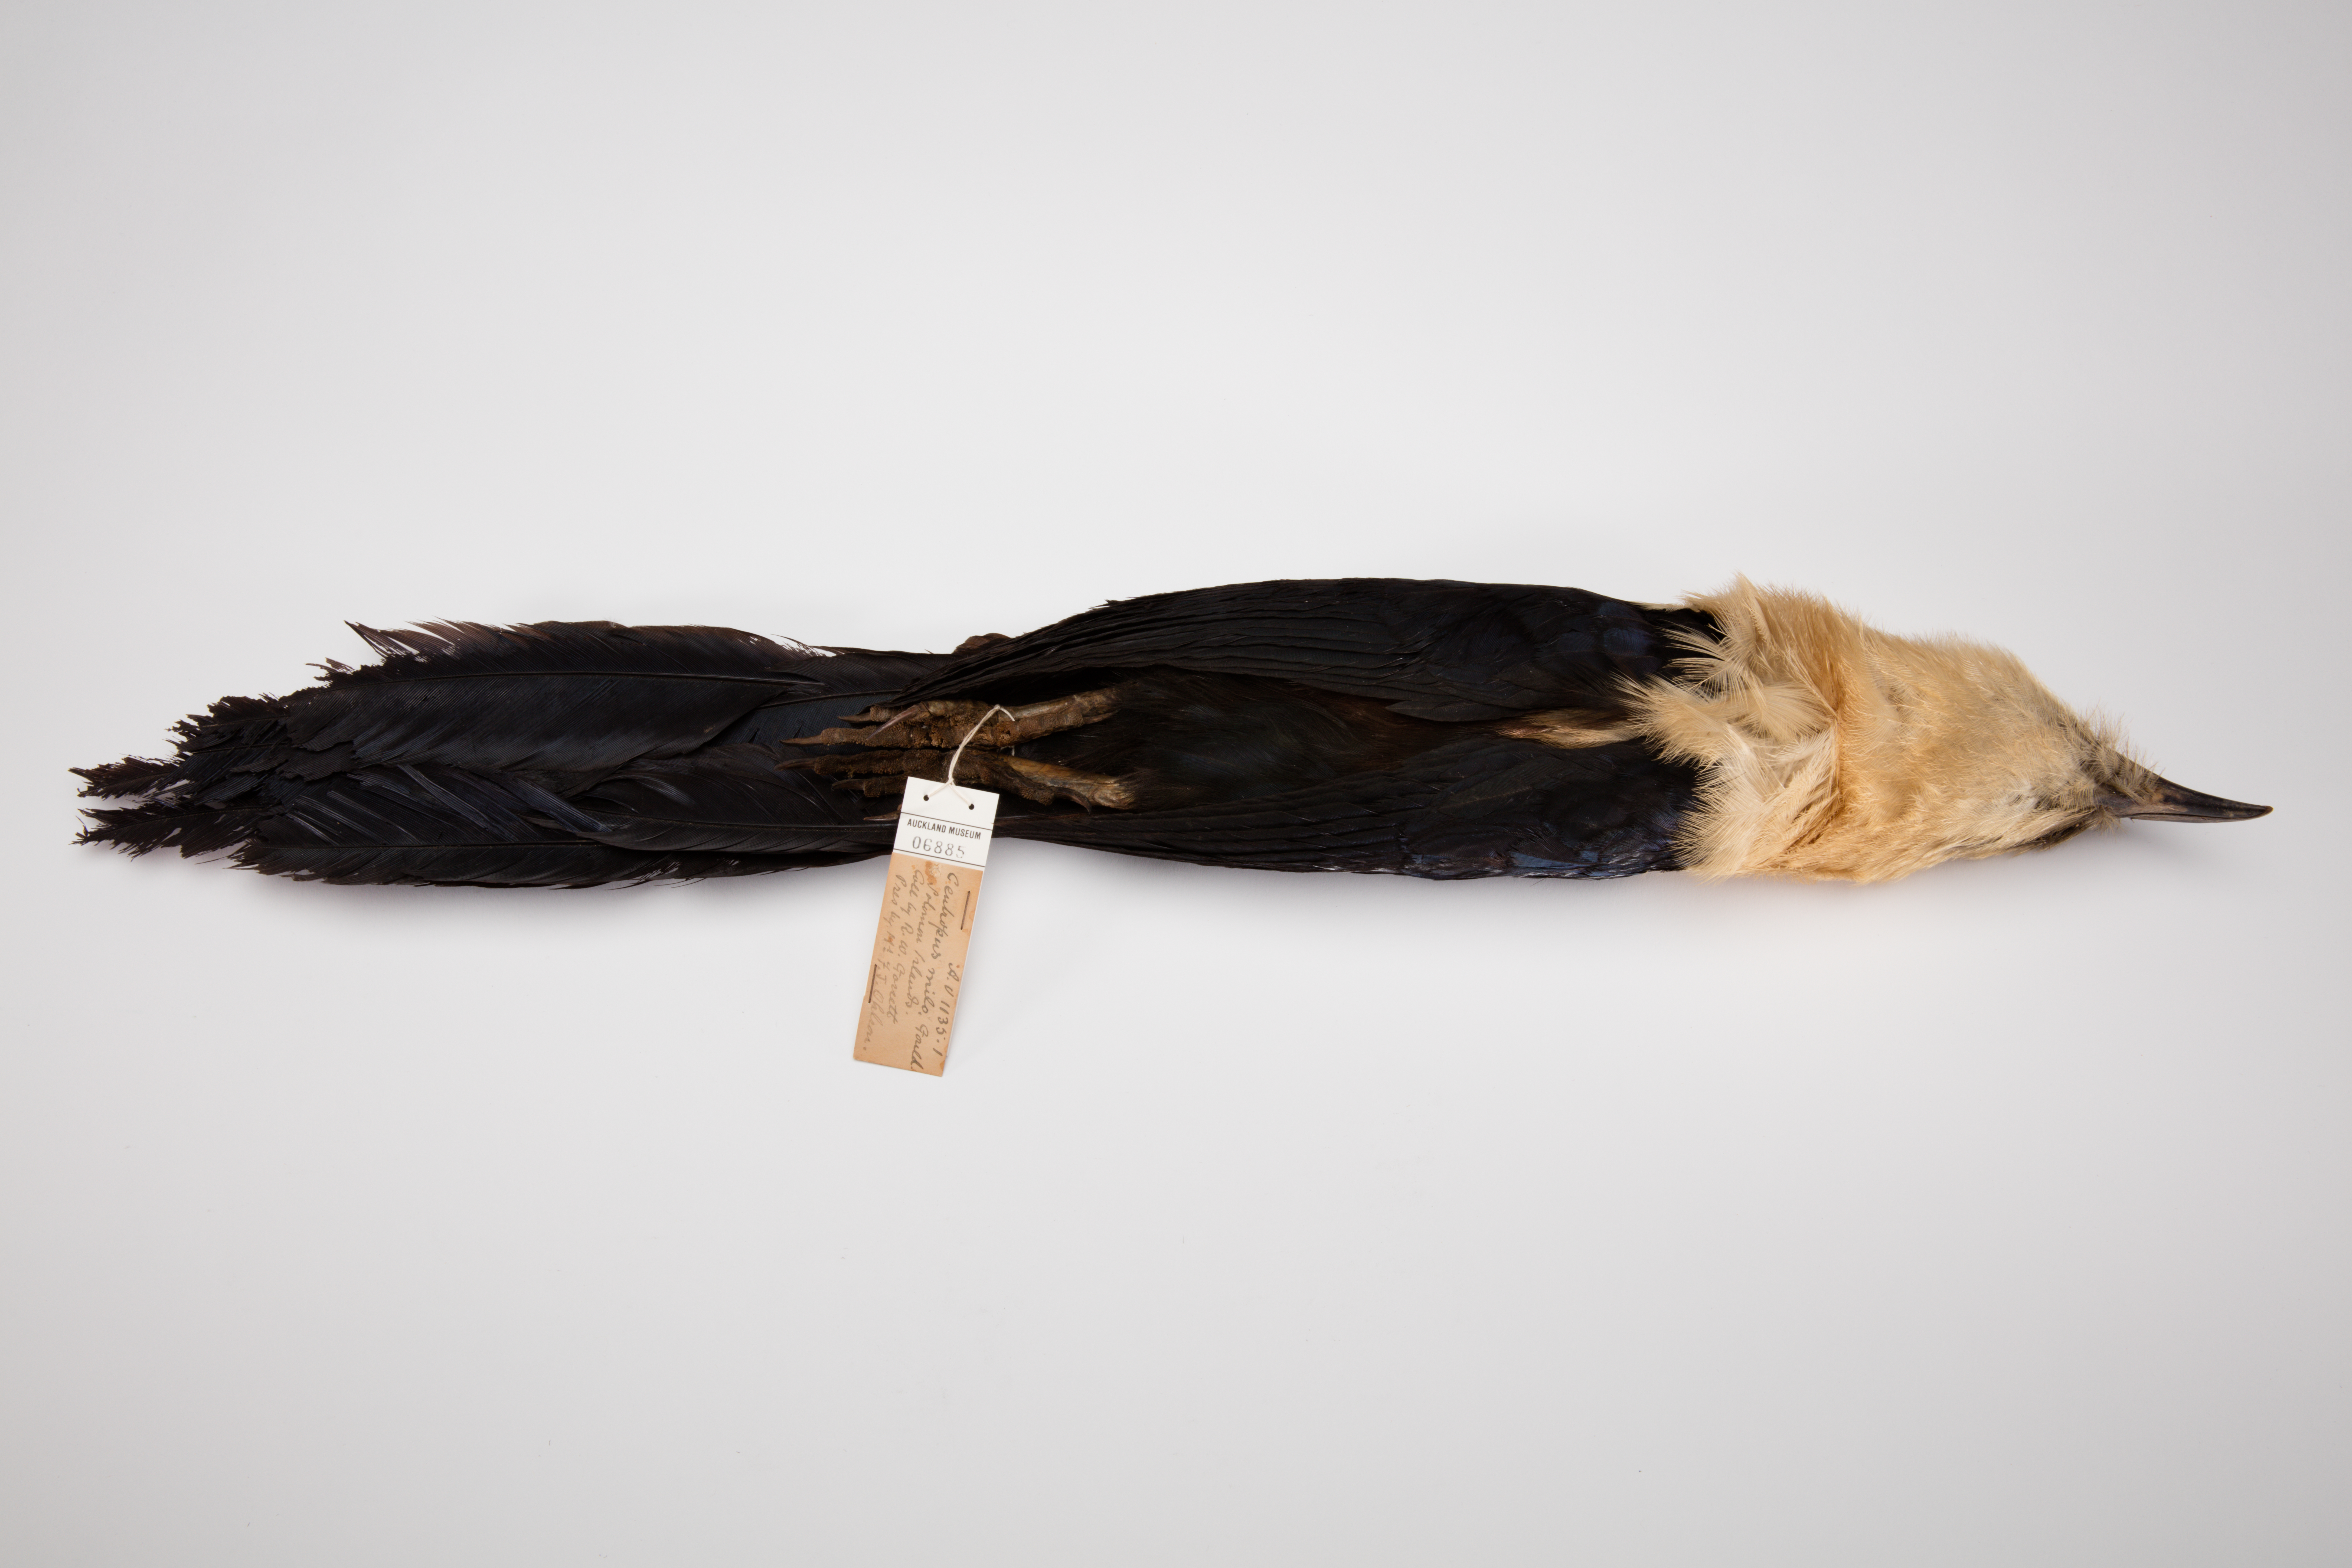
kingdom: Animalia
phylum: Chordata
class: Aves
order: Cuculiformes
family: Cuculidae
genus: Centropus
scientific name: Centropus milo
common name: Buff-headed coucal
